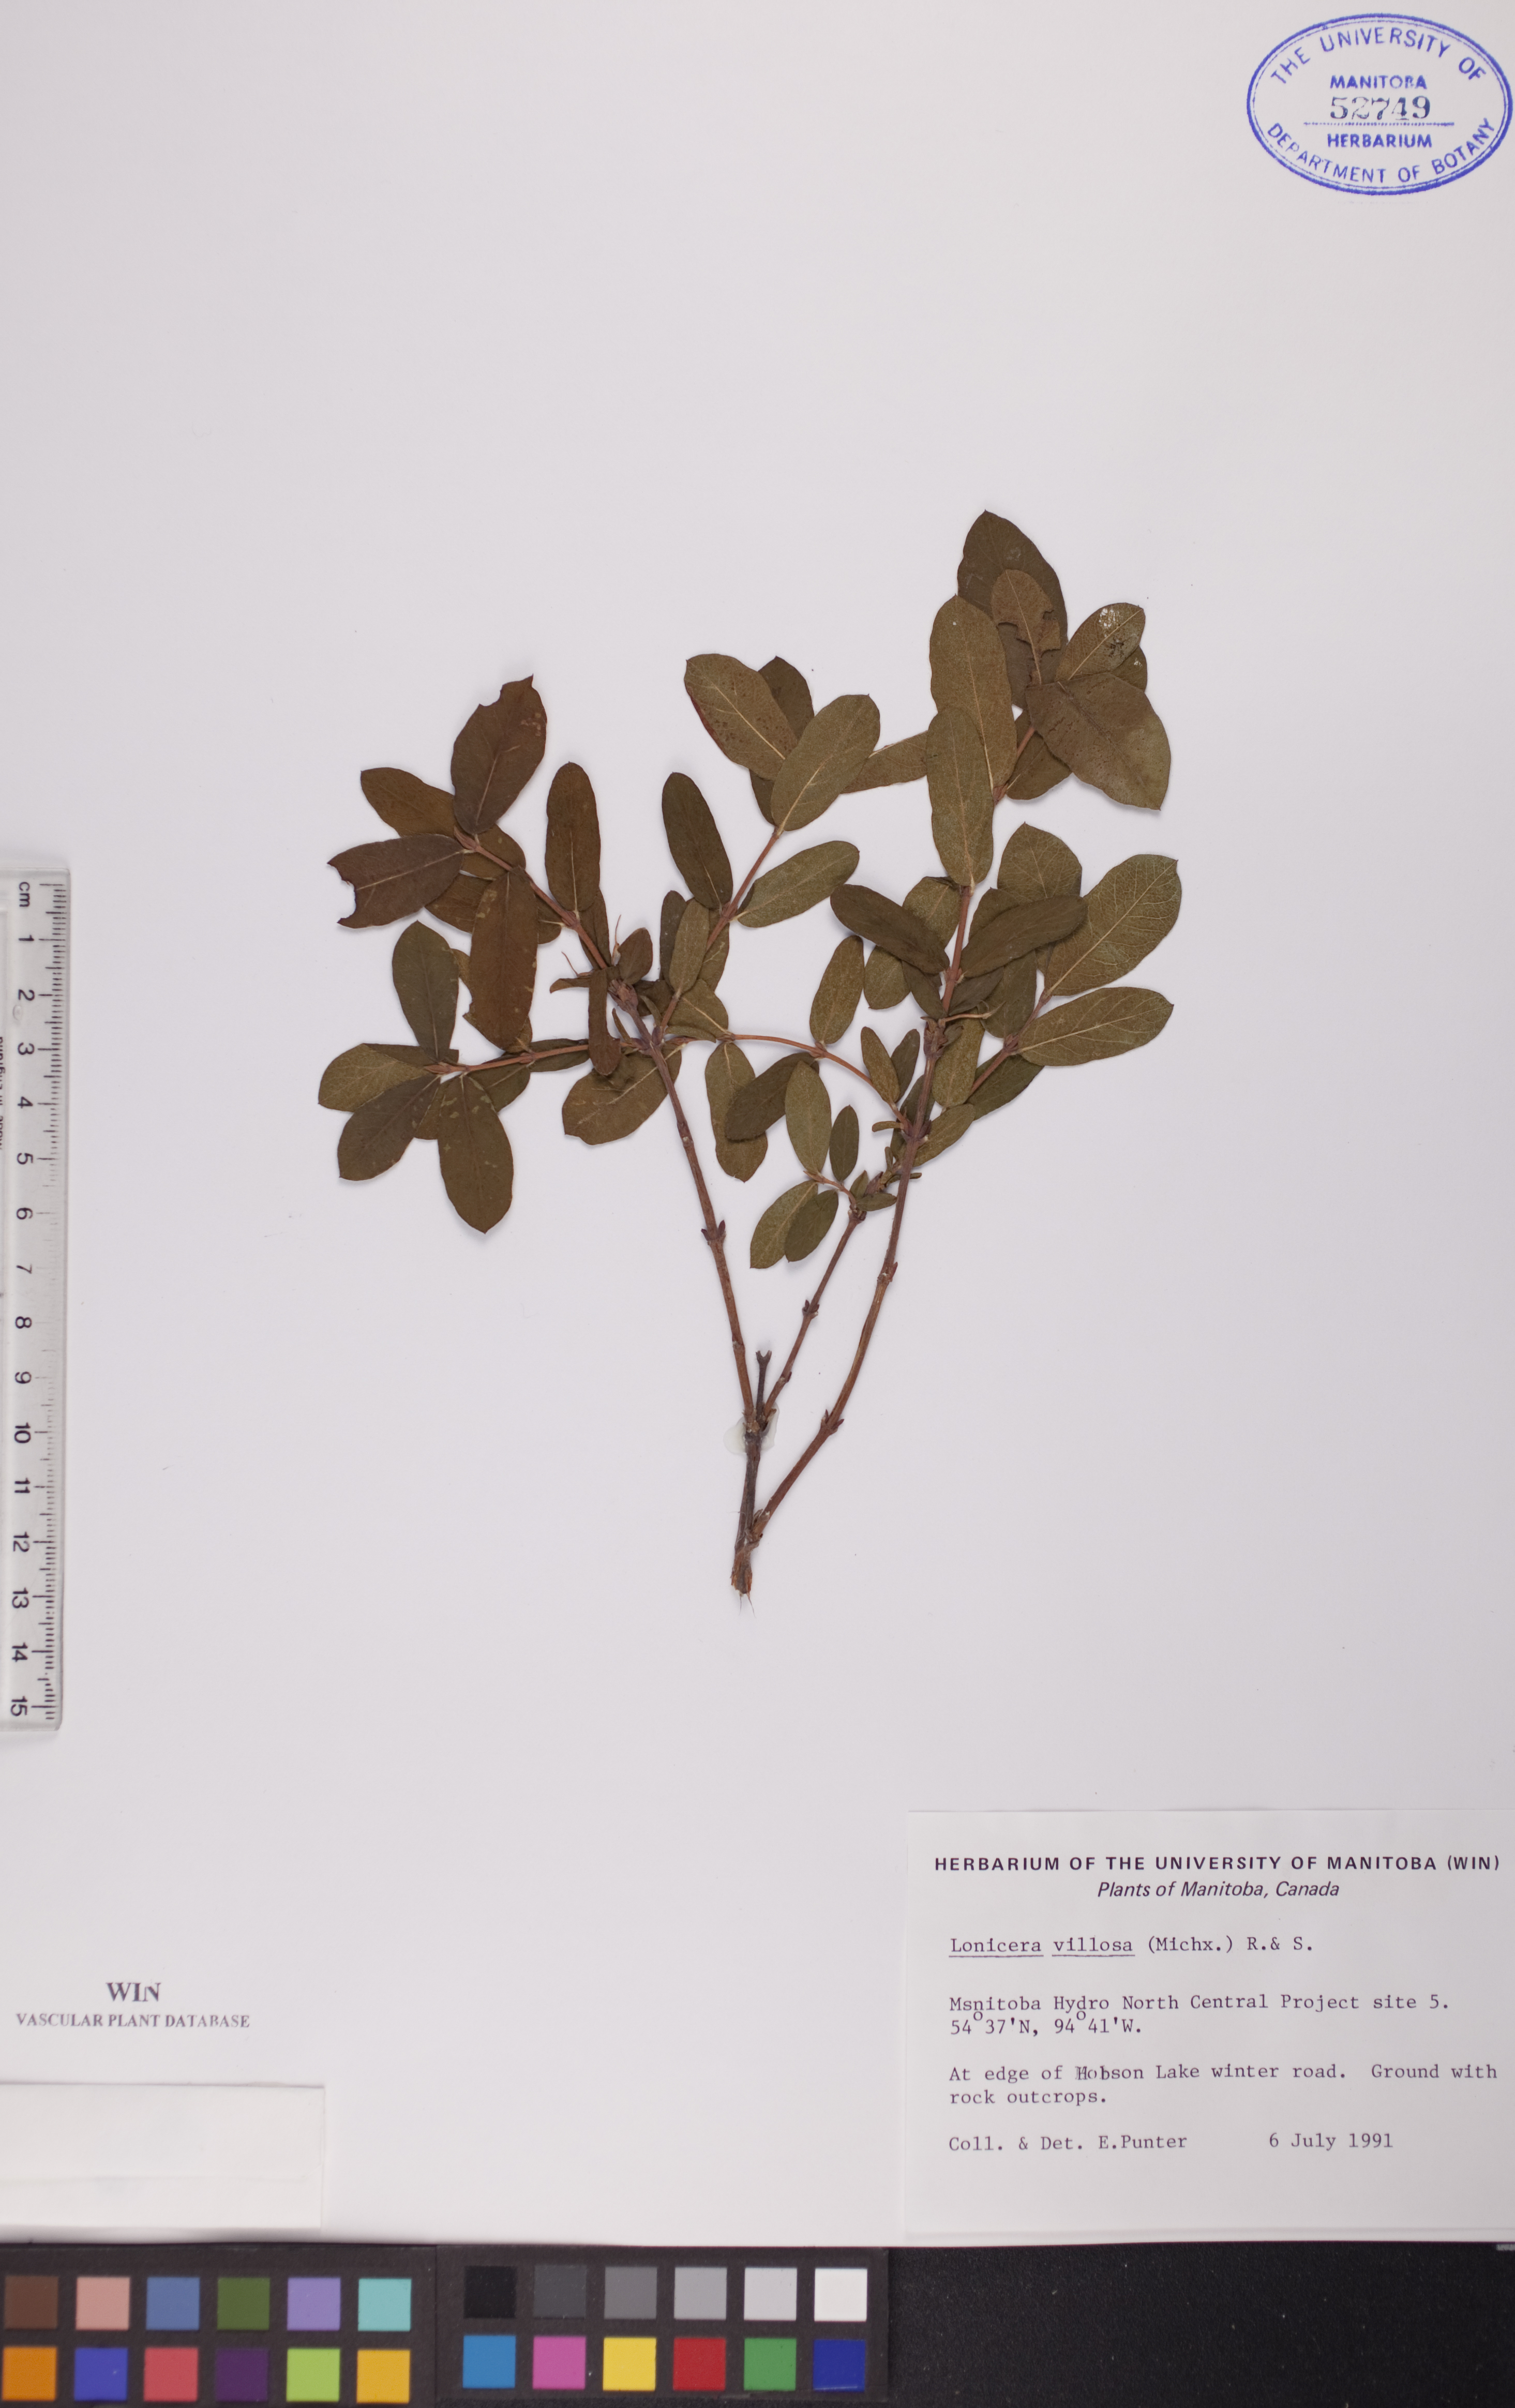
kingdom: Plantae
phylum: Tracheophyta
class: Magnoliopsida
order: Dipsacales
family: Caprifoliaceae
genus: Lonicera
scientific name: Lonicera villosa
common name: Mountain fly-honeysuckle
